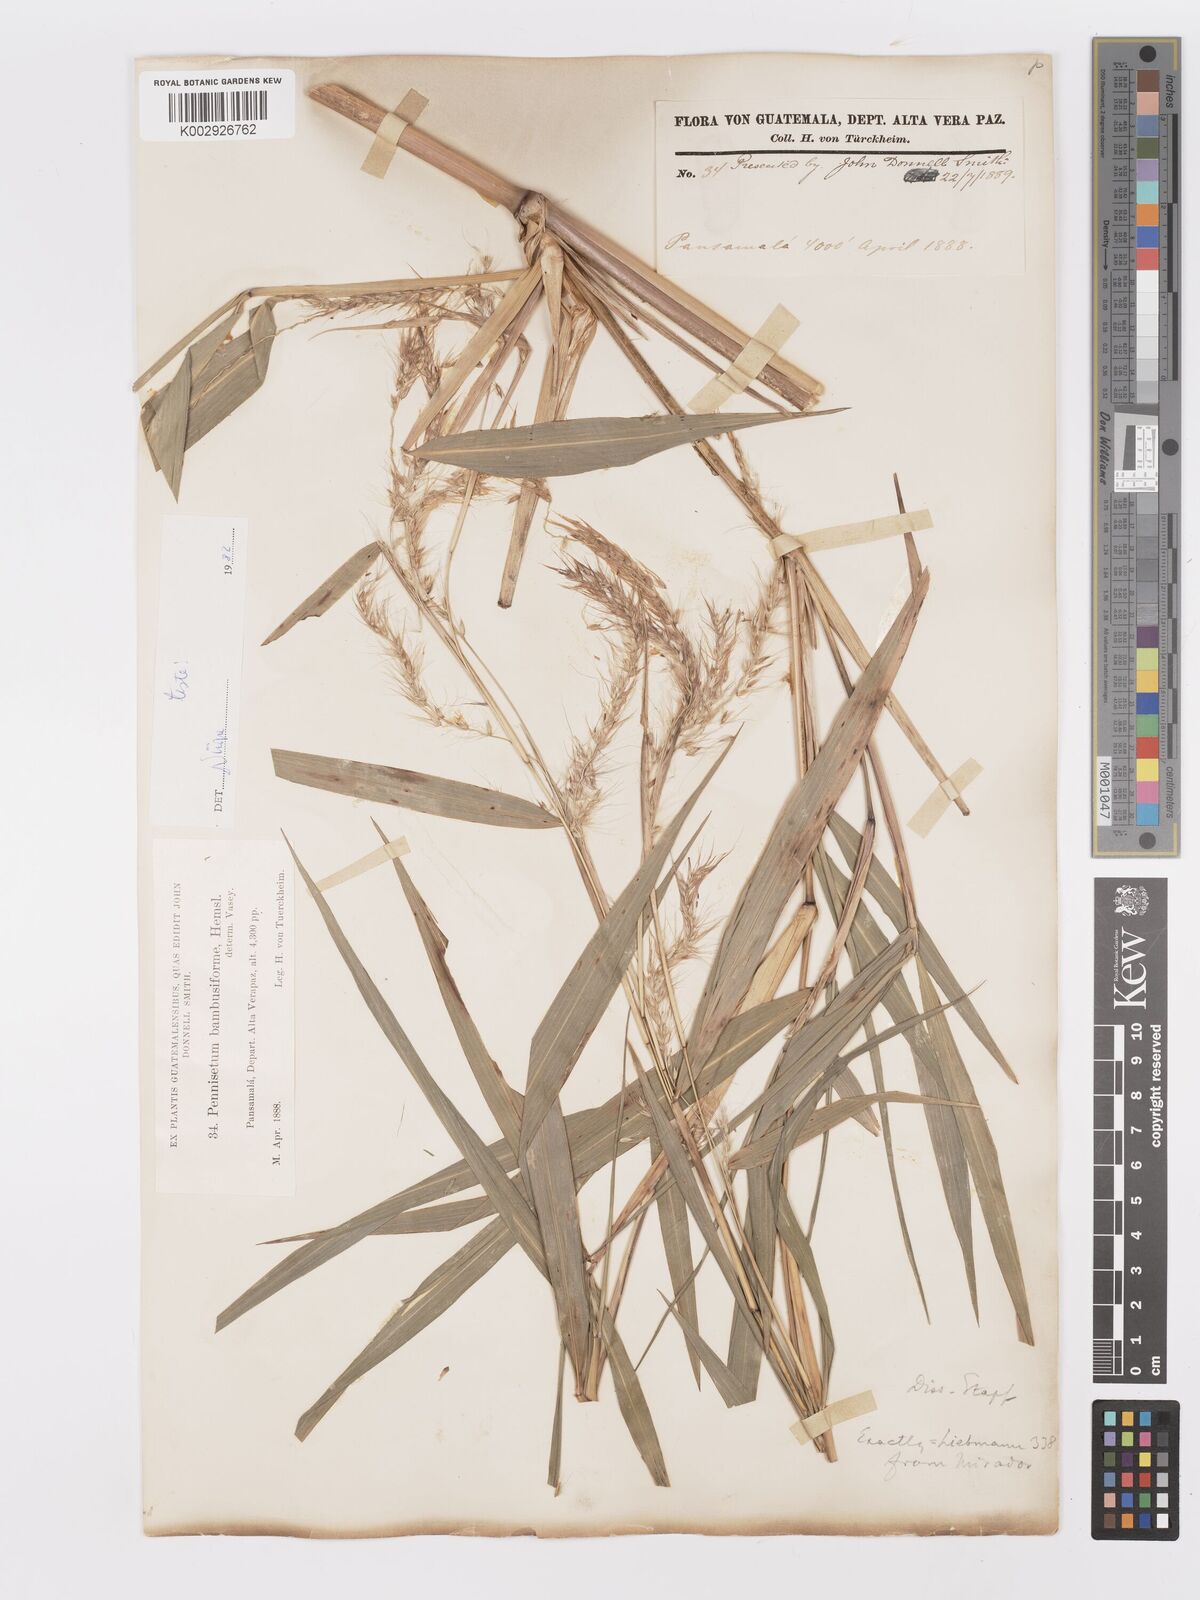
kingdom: Plantae
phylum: Tracheophyta
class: Liliopsida
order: Poales
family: Poaceae
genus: Cenchrus
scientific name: Cenchrus preslii
